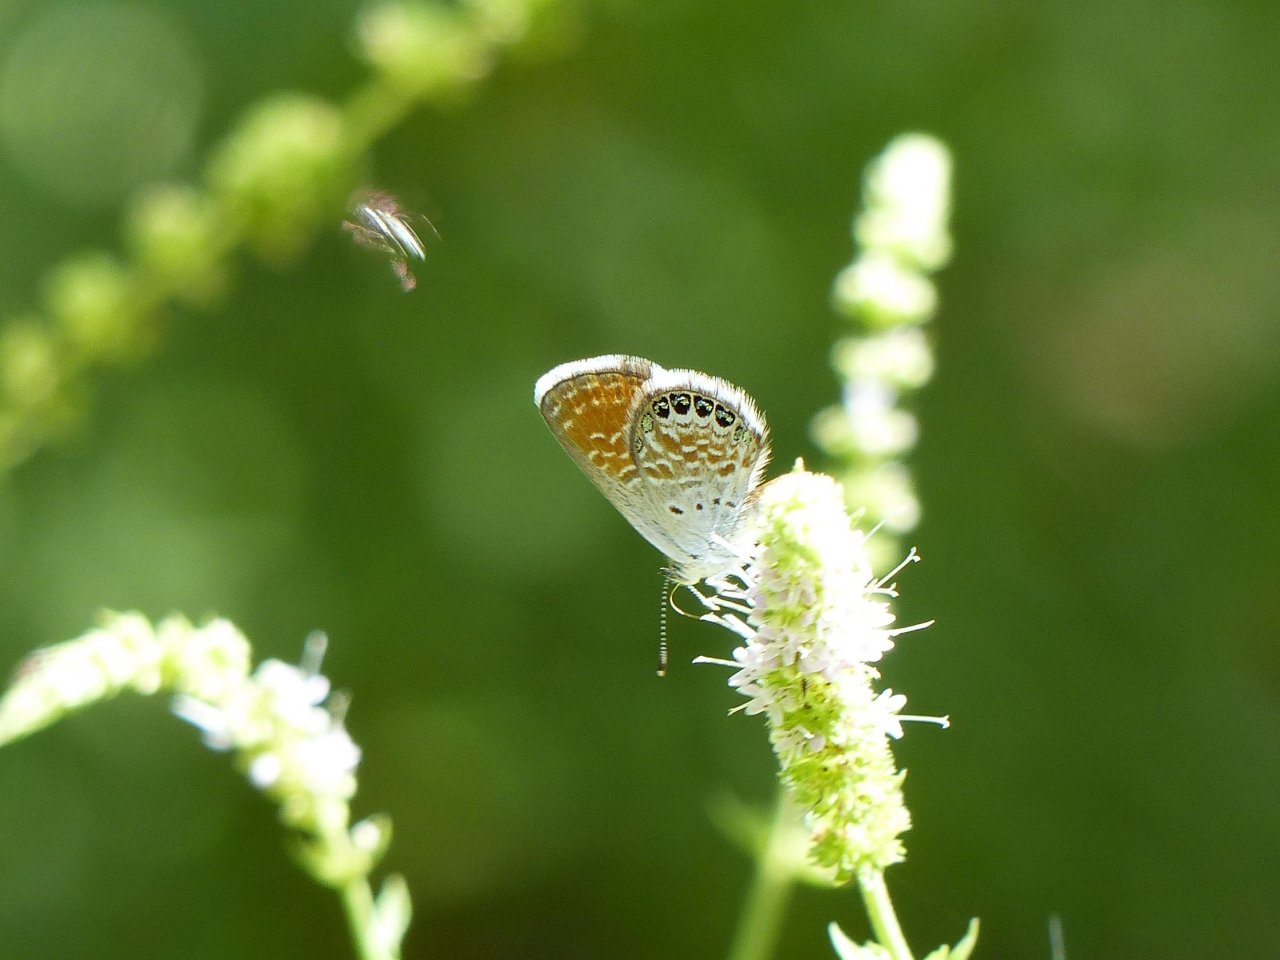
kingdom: Animalia
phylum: Arthropoda
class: Insecta
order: Lepidoptera
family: Lycaenidae
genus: Brephidium
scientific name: Brephidium exilis
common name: Western Pygmy-Blue
